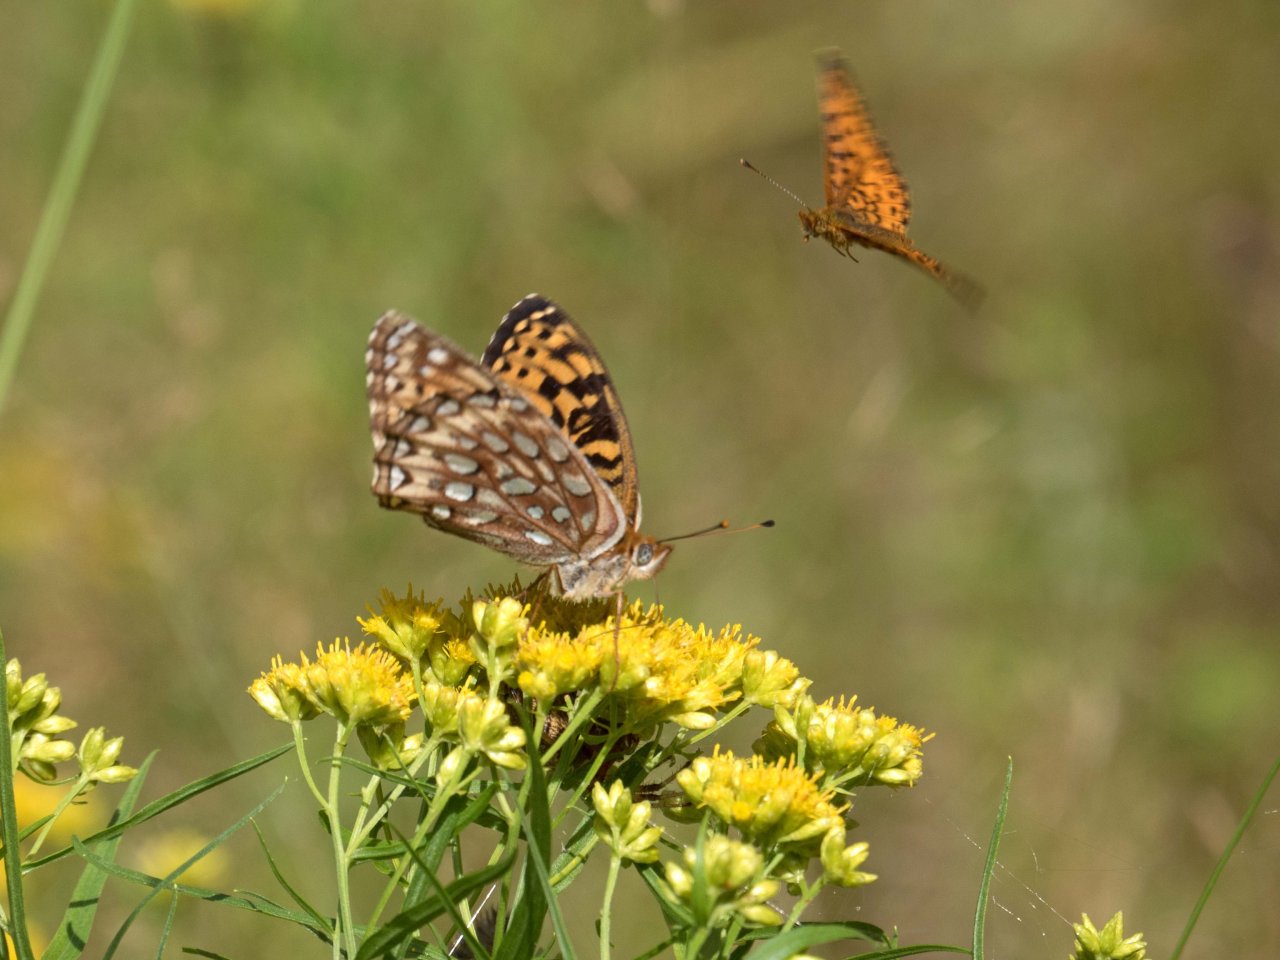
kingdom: Animalia
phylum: Arthropoda
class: Insecta
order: Lepidoptera
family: Nymphalidae
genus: Speyeria
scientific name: Speyeria atlantis
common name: Atlantis Fritillary
